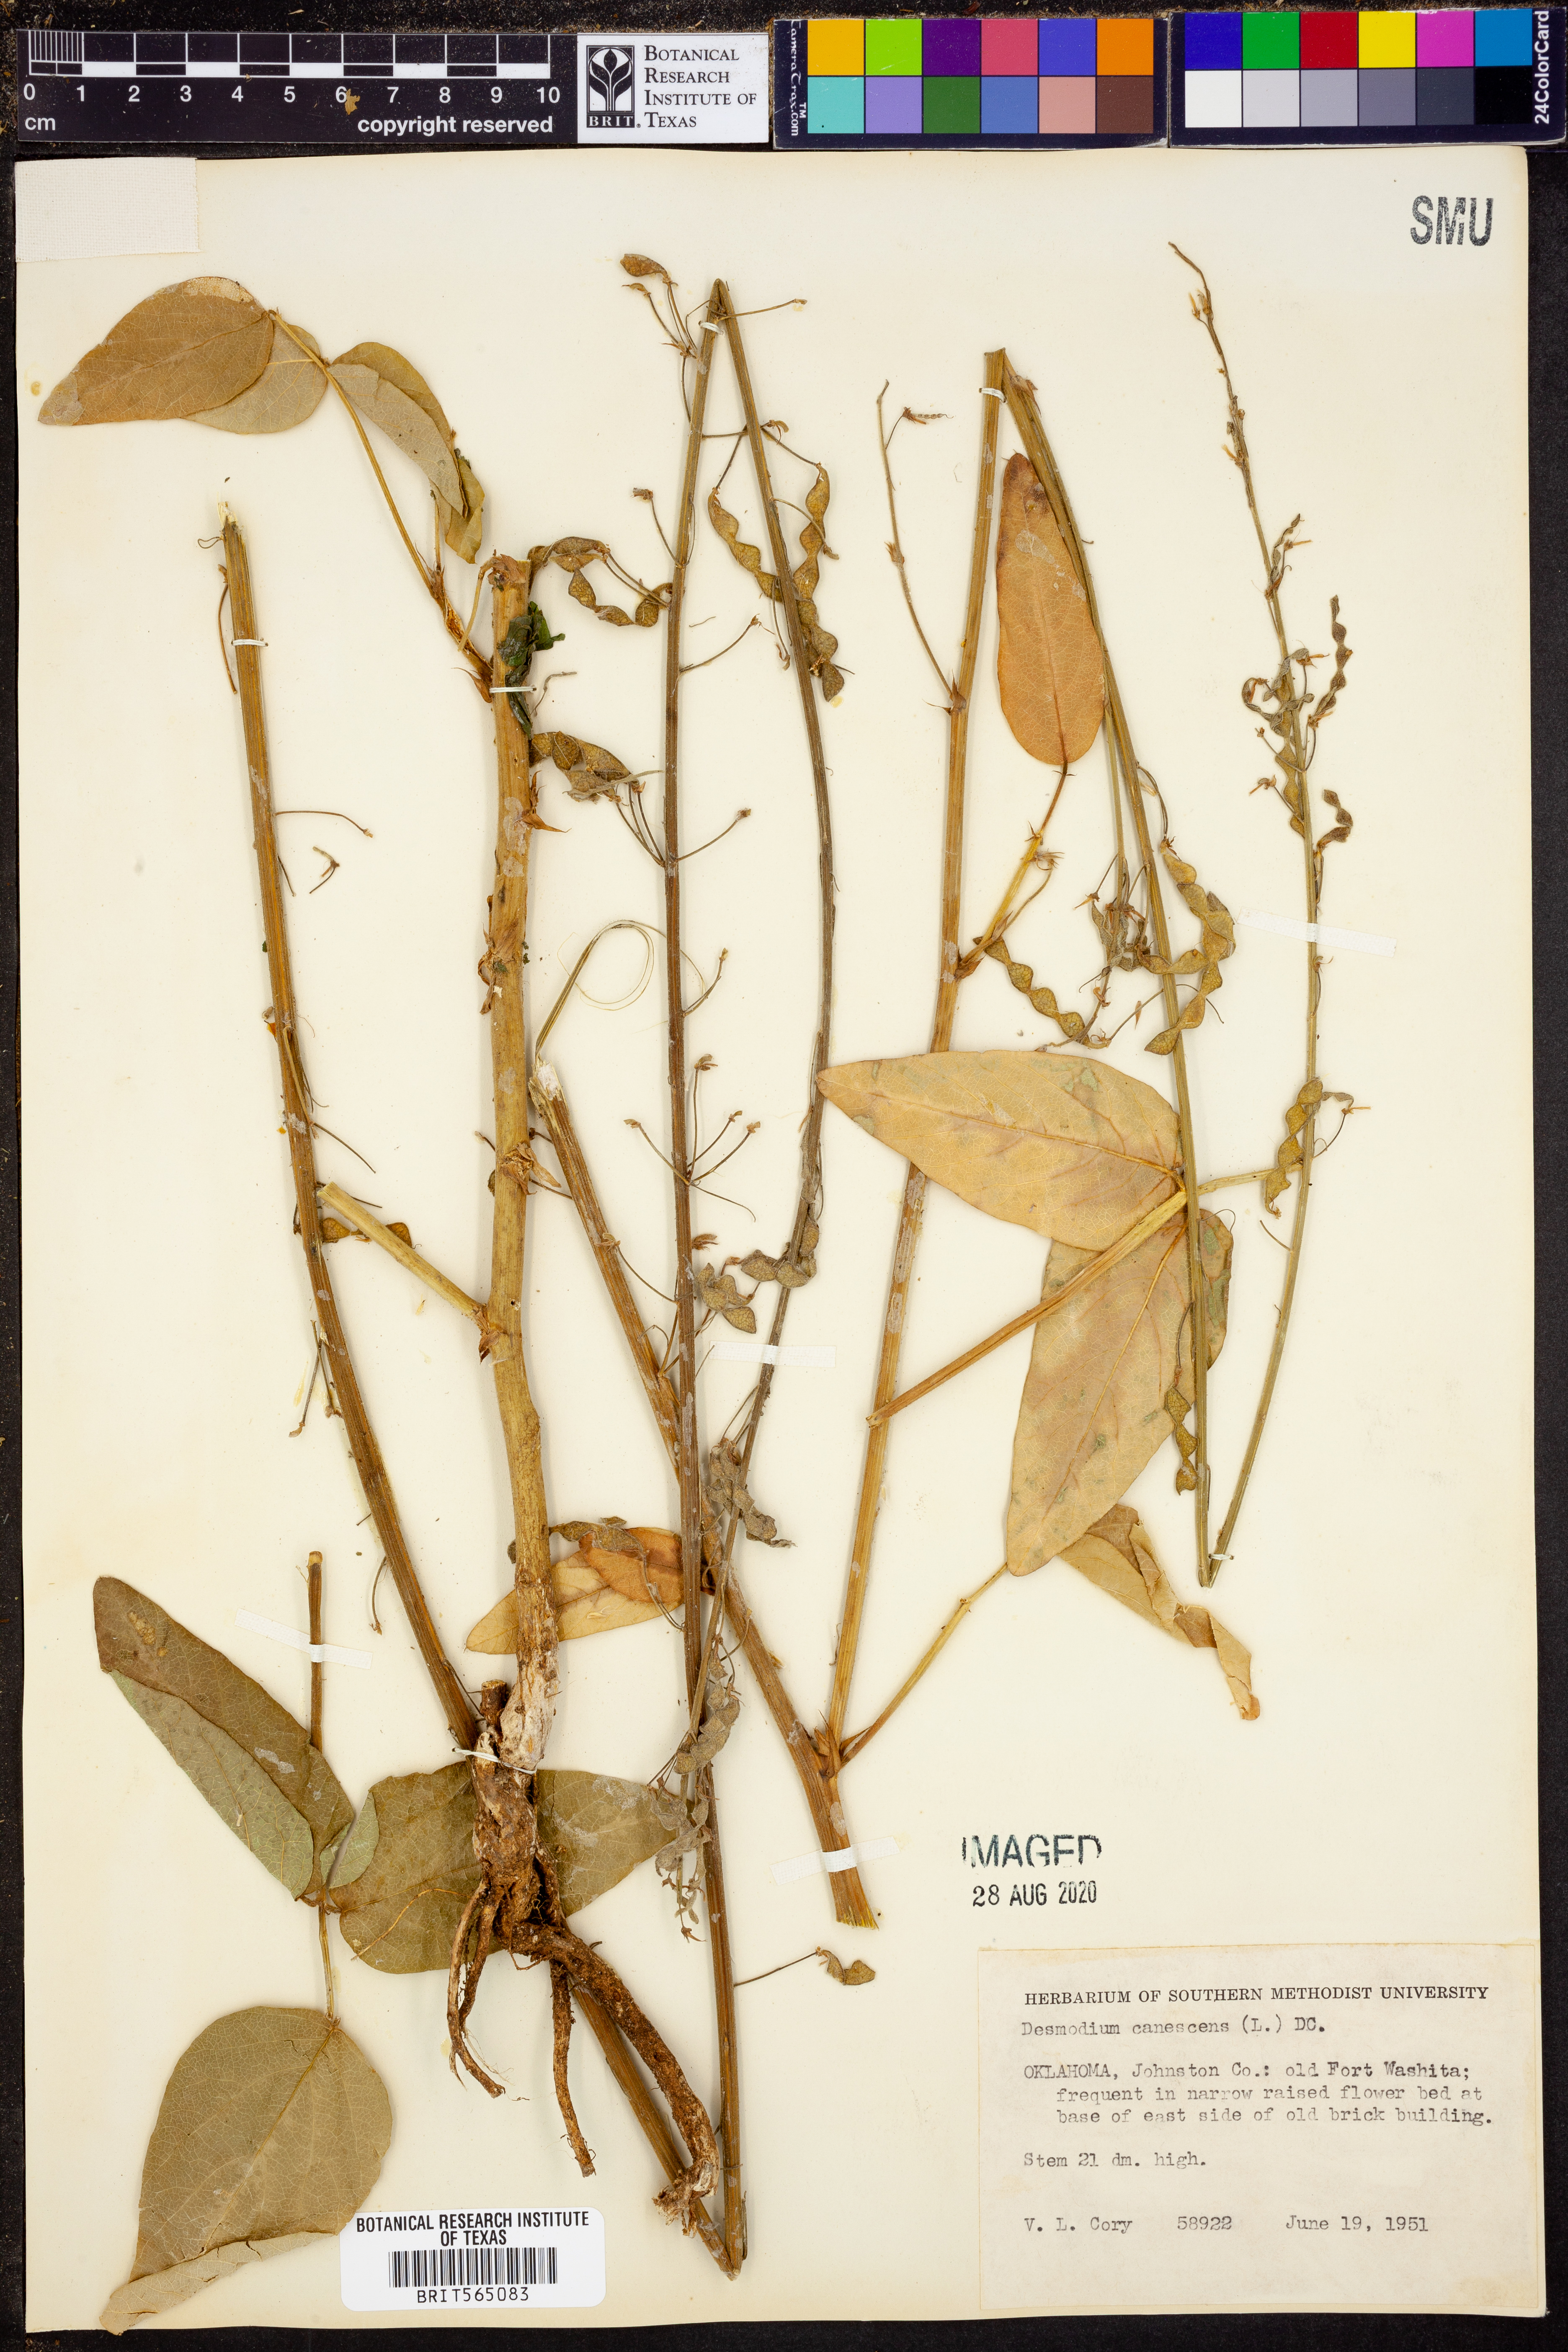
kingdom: Plantae
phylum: Tracheophyta
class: Magnoliopsida
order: Fabales
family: Fabaceae
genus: Desmodium
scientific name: Desmodium canescens
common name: Hoary tick-clover
